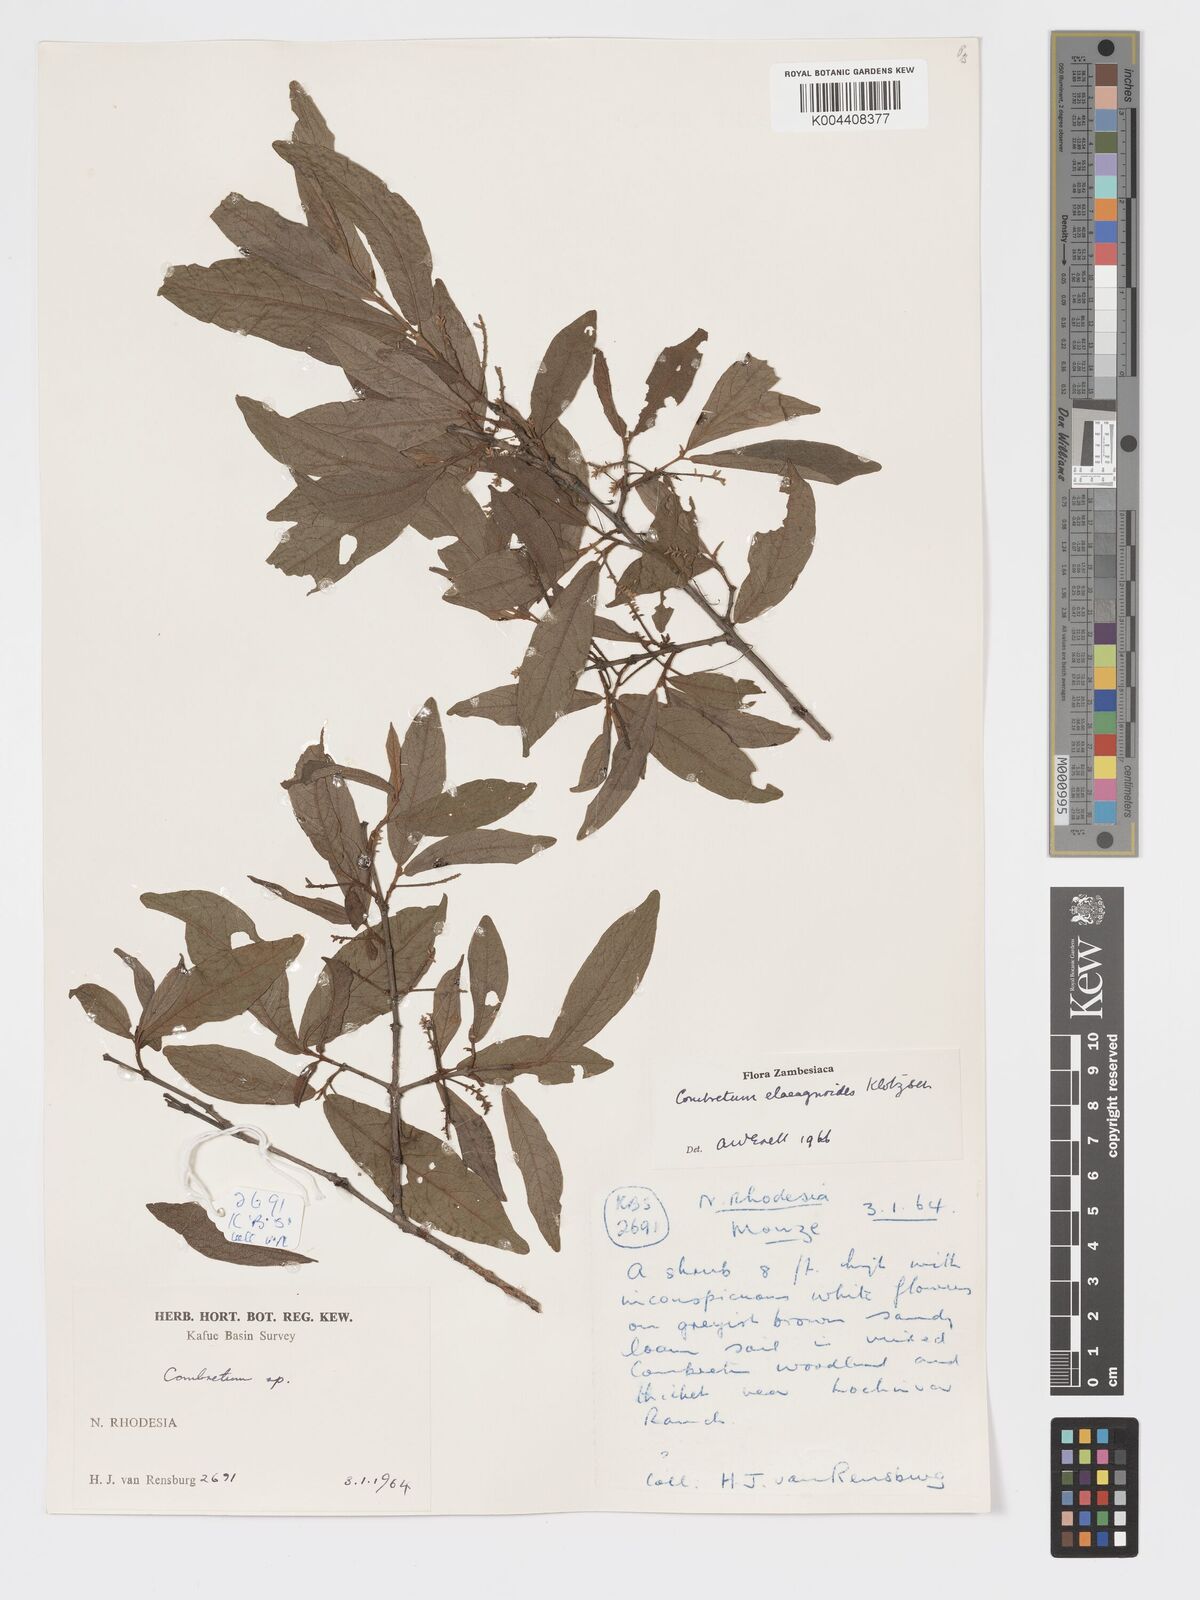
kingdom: Plantae
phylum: Tracheophyta
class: Magnoliopsida
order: Myrtales
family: Combretaceae
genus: Combretum
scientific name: Combretum elaeagnoides
